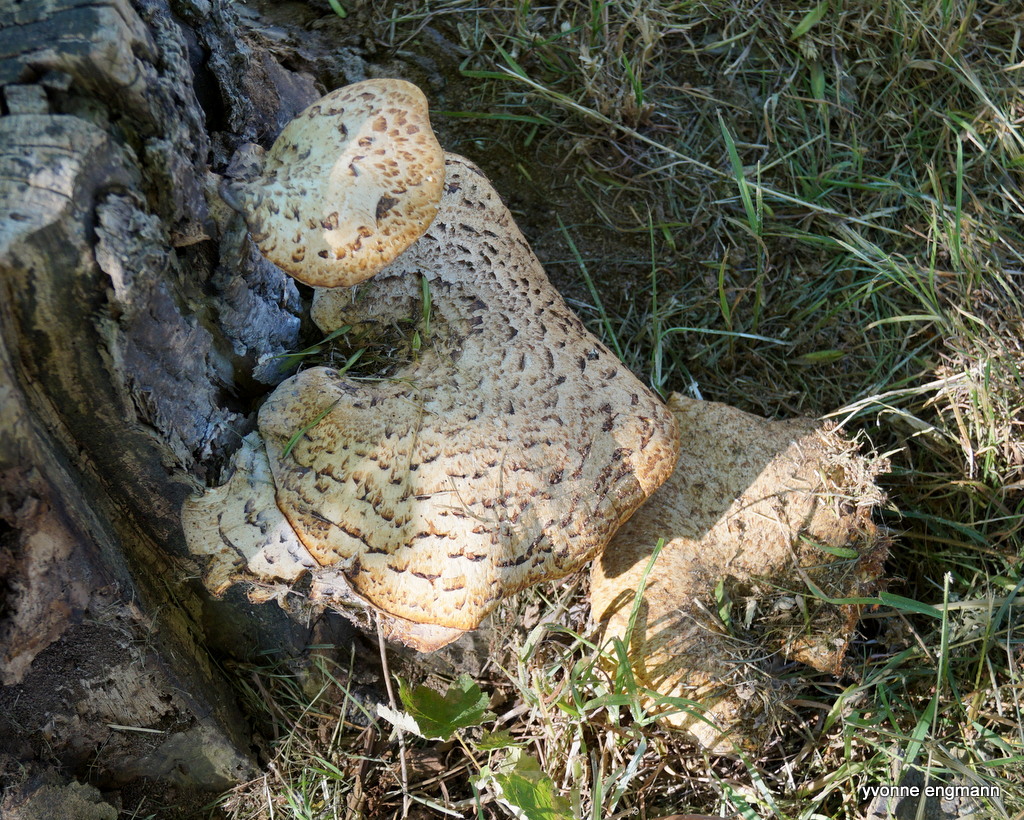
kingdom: Fungi
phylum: Basidiomycota
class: Agaricomycetes
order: Polyporales
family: Polyporaceae
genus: Cerioporus
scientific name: Cerioporus squamosus
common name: skællet stilkporesvamp
